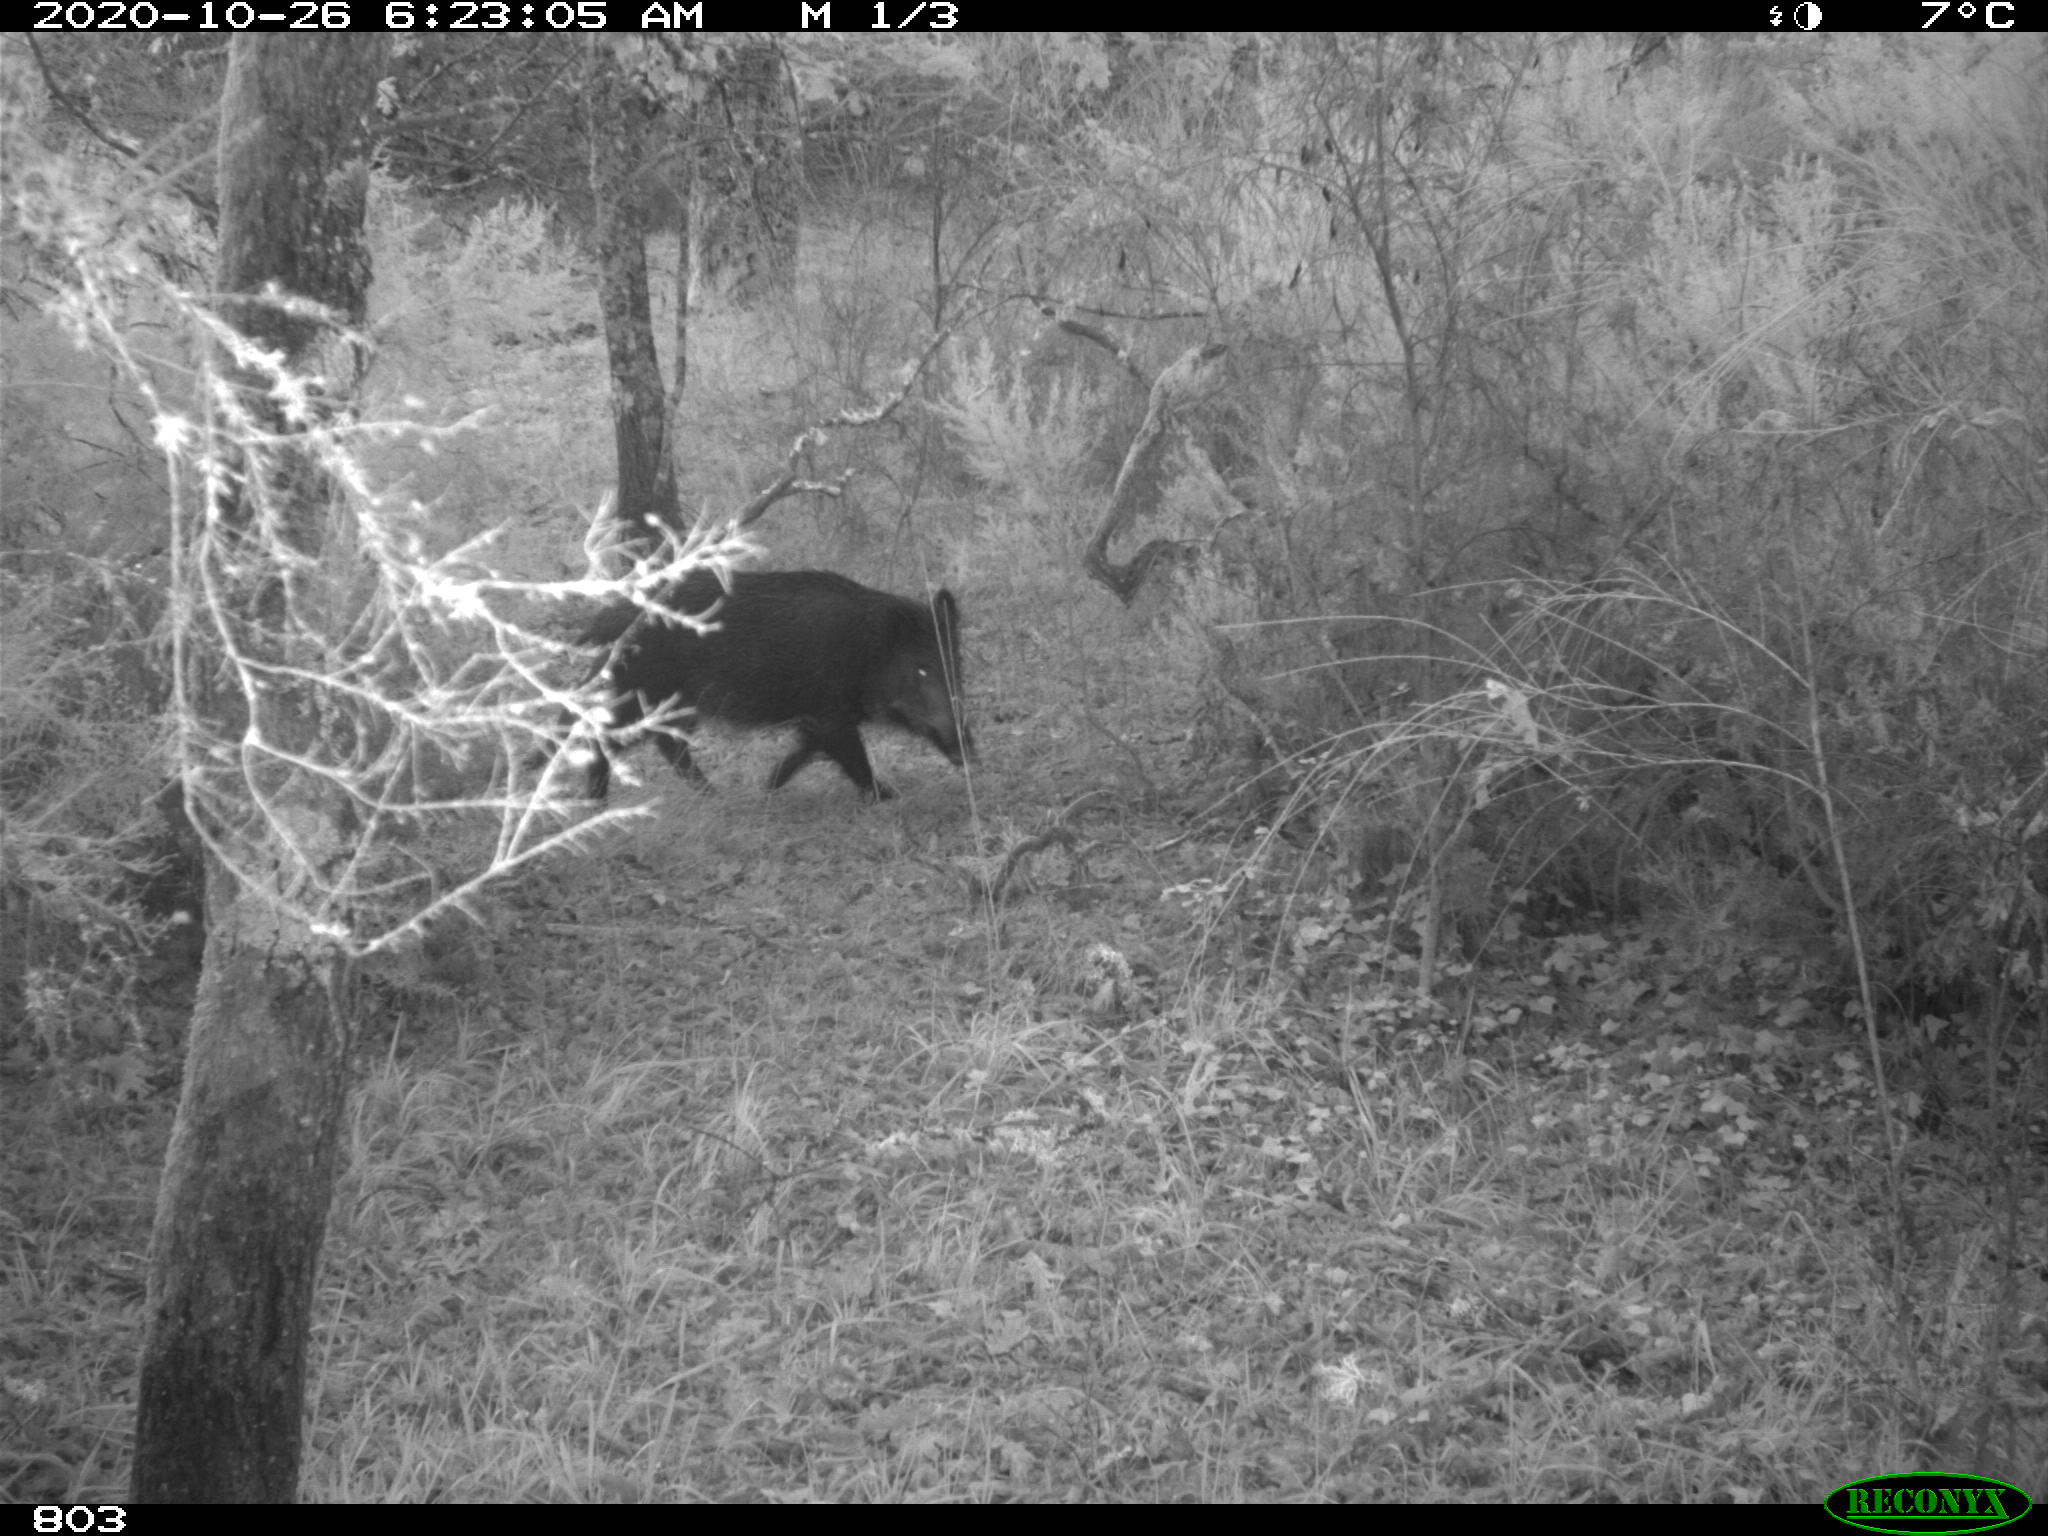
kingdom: Animalia
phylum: Chordata
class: Mammalia
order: Artiodactyla
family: Suidae
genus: Sus
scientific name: Sus scrofa
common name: Wild boar
